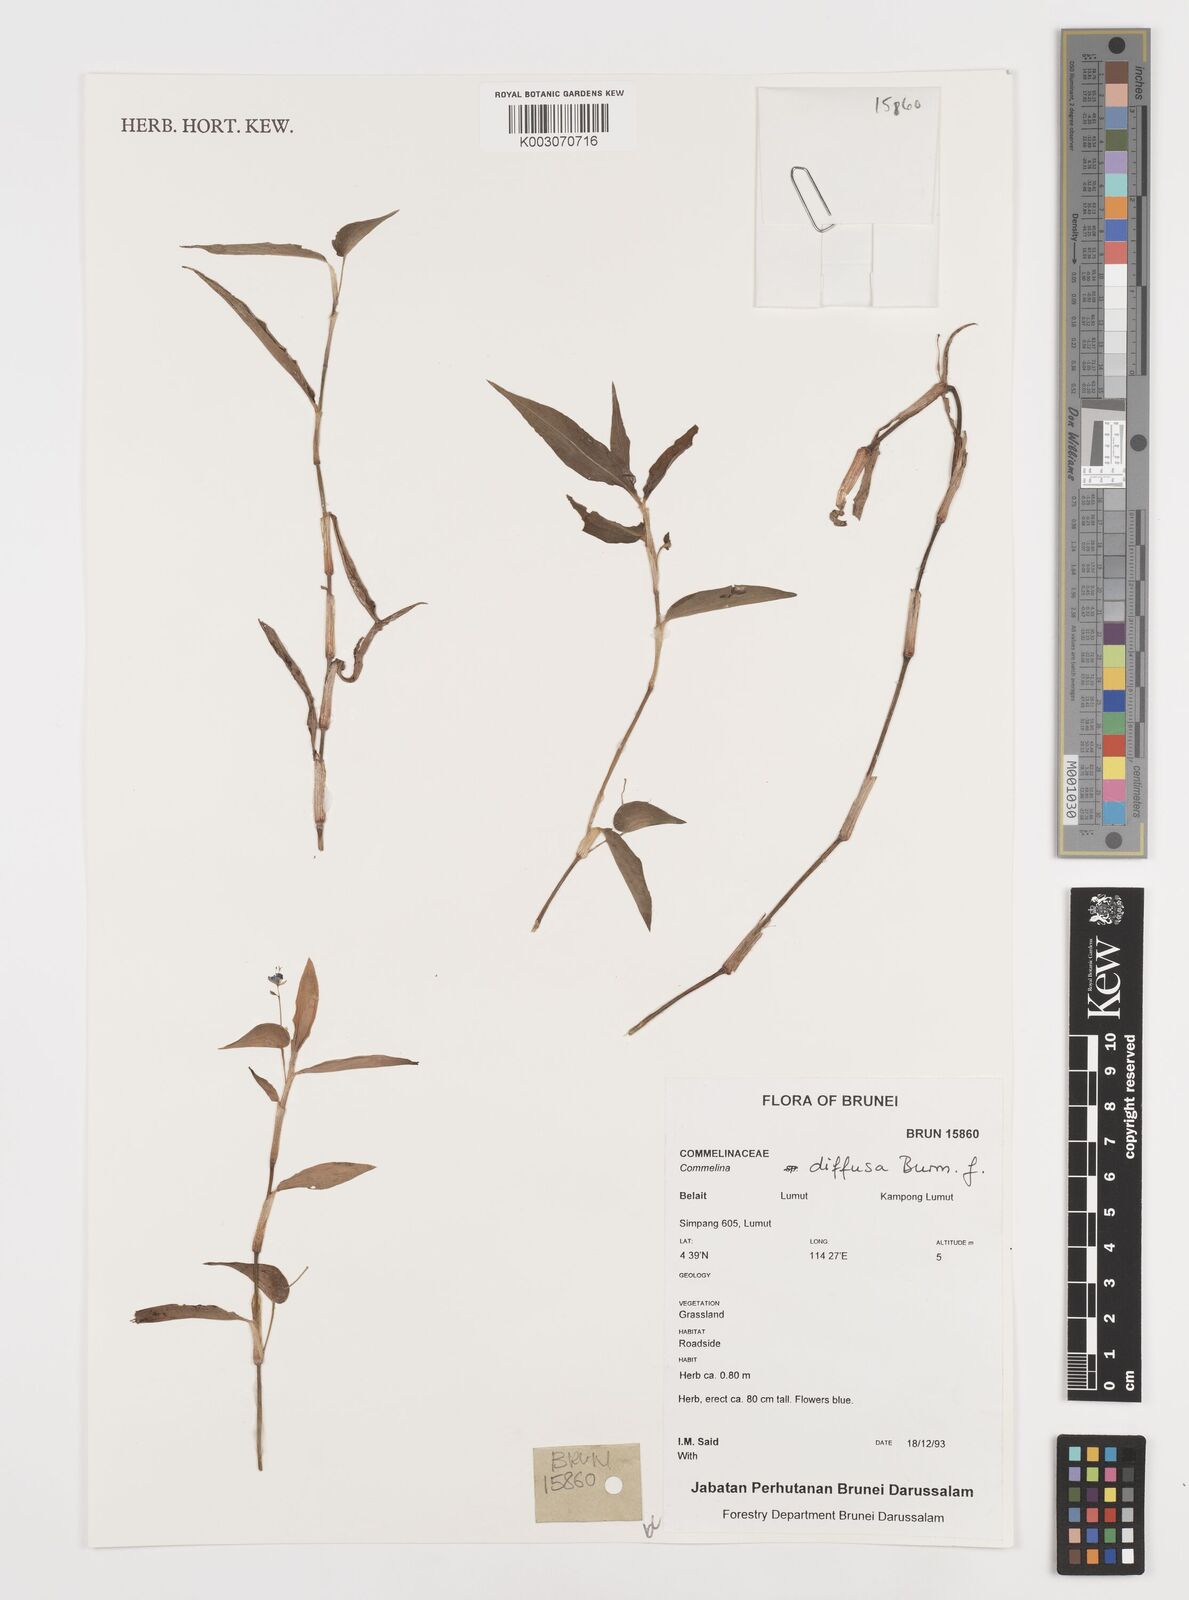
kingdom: Plantae
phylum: Tracheophyta
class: Liliopsida
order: Commelinales
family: Commelinaceae
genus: Commelina
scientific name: Commelina clavata
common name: Willow leaved dayflower
